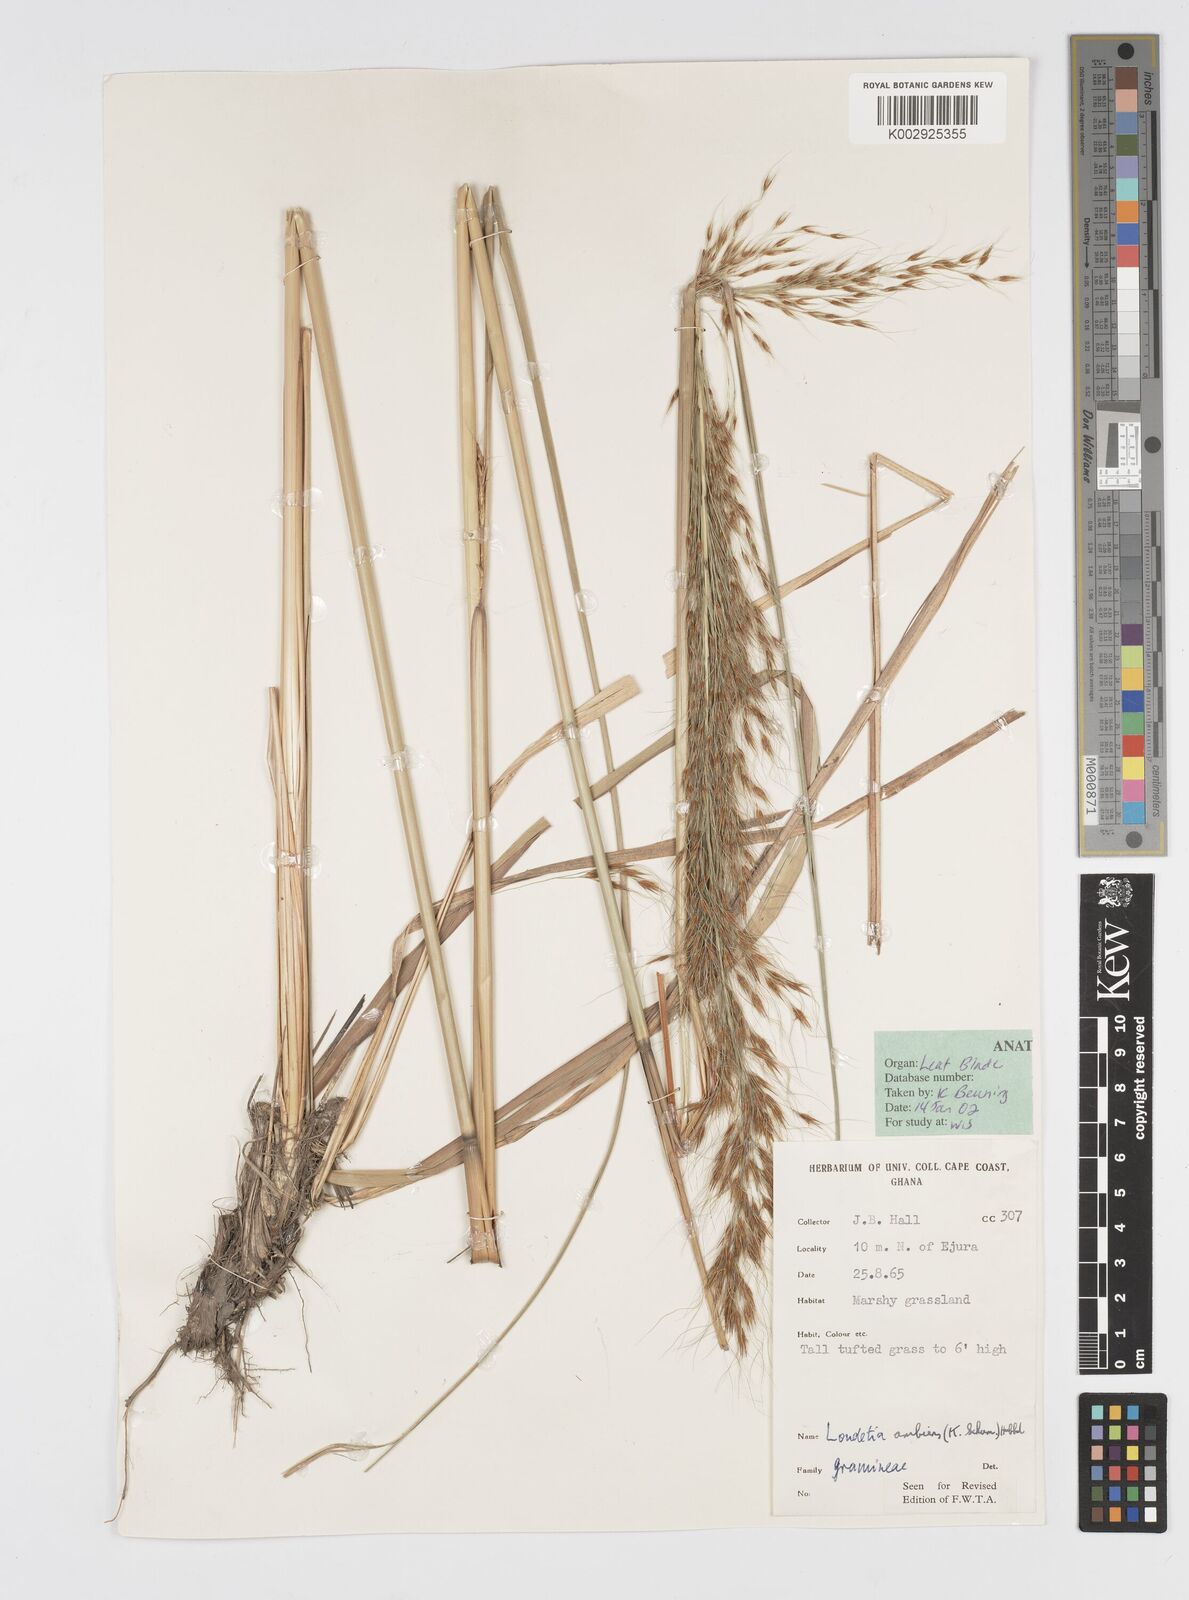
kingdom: Plantae
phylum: Tracheophyta
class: Liliopsida
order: Poales
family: Poaceae
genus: Loudetiopsis
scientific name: Loudetiopsis ambiens
